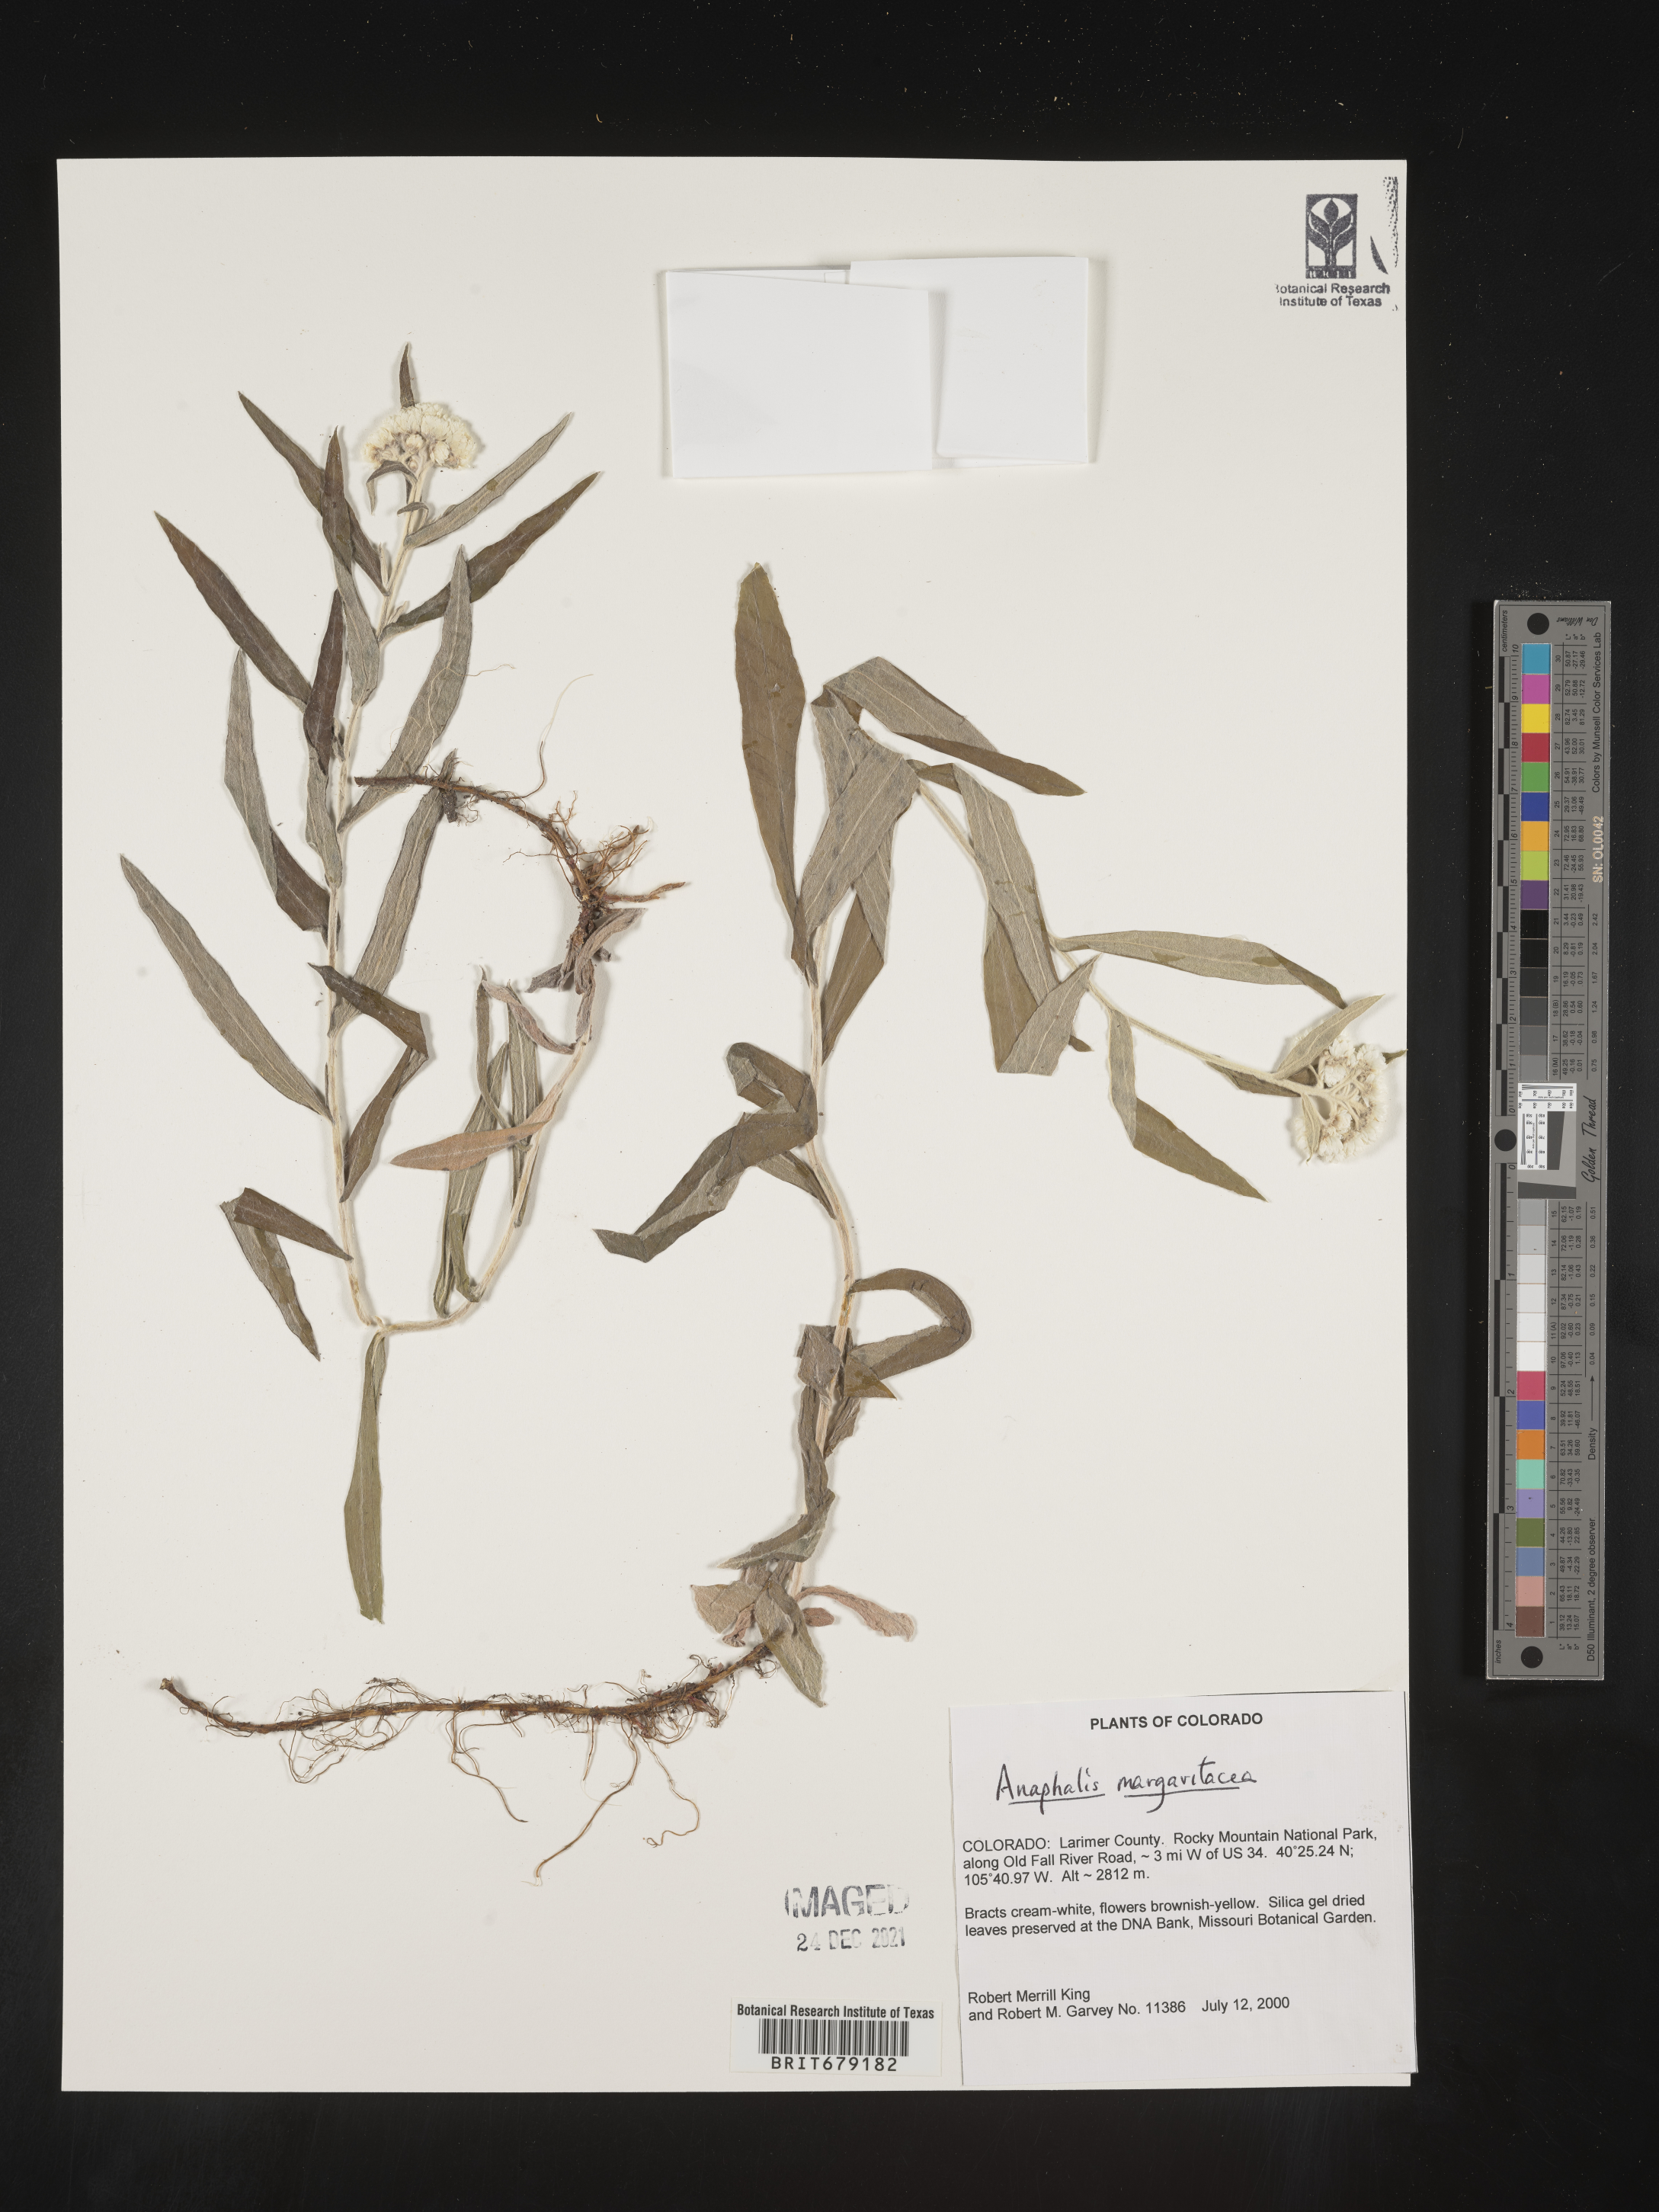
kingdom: Plantae
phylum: Tracheophyta
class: Magnoliopsida
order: Asterales
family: Asteraceae
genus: Anaphalis
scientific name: Anaphalis margaritacea
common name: Pearly everlasting
